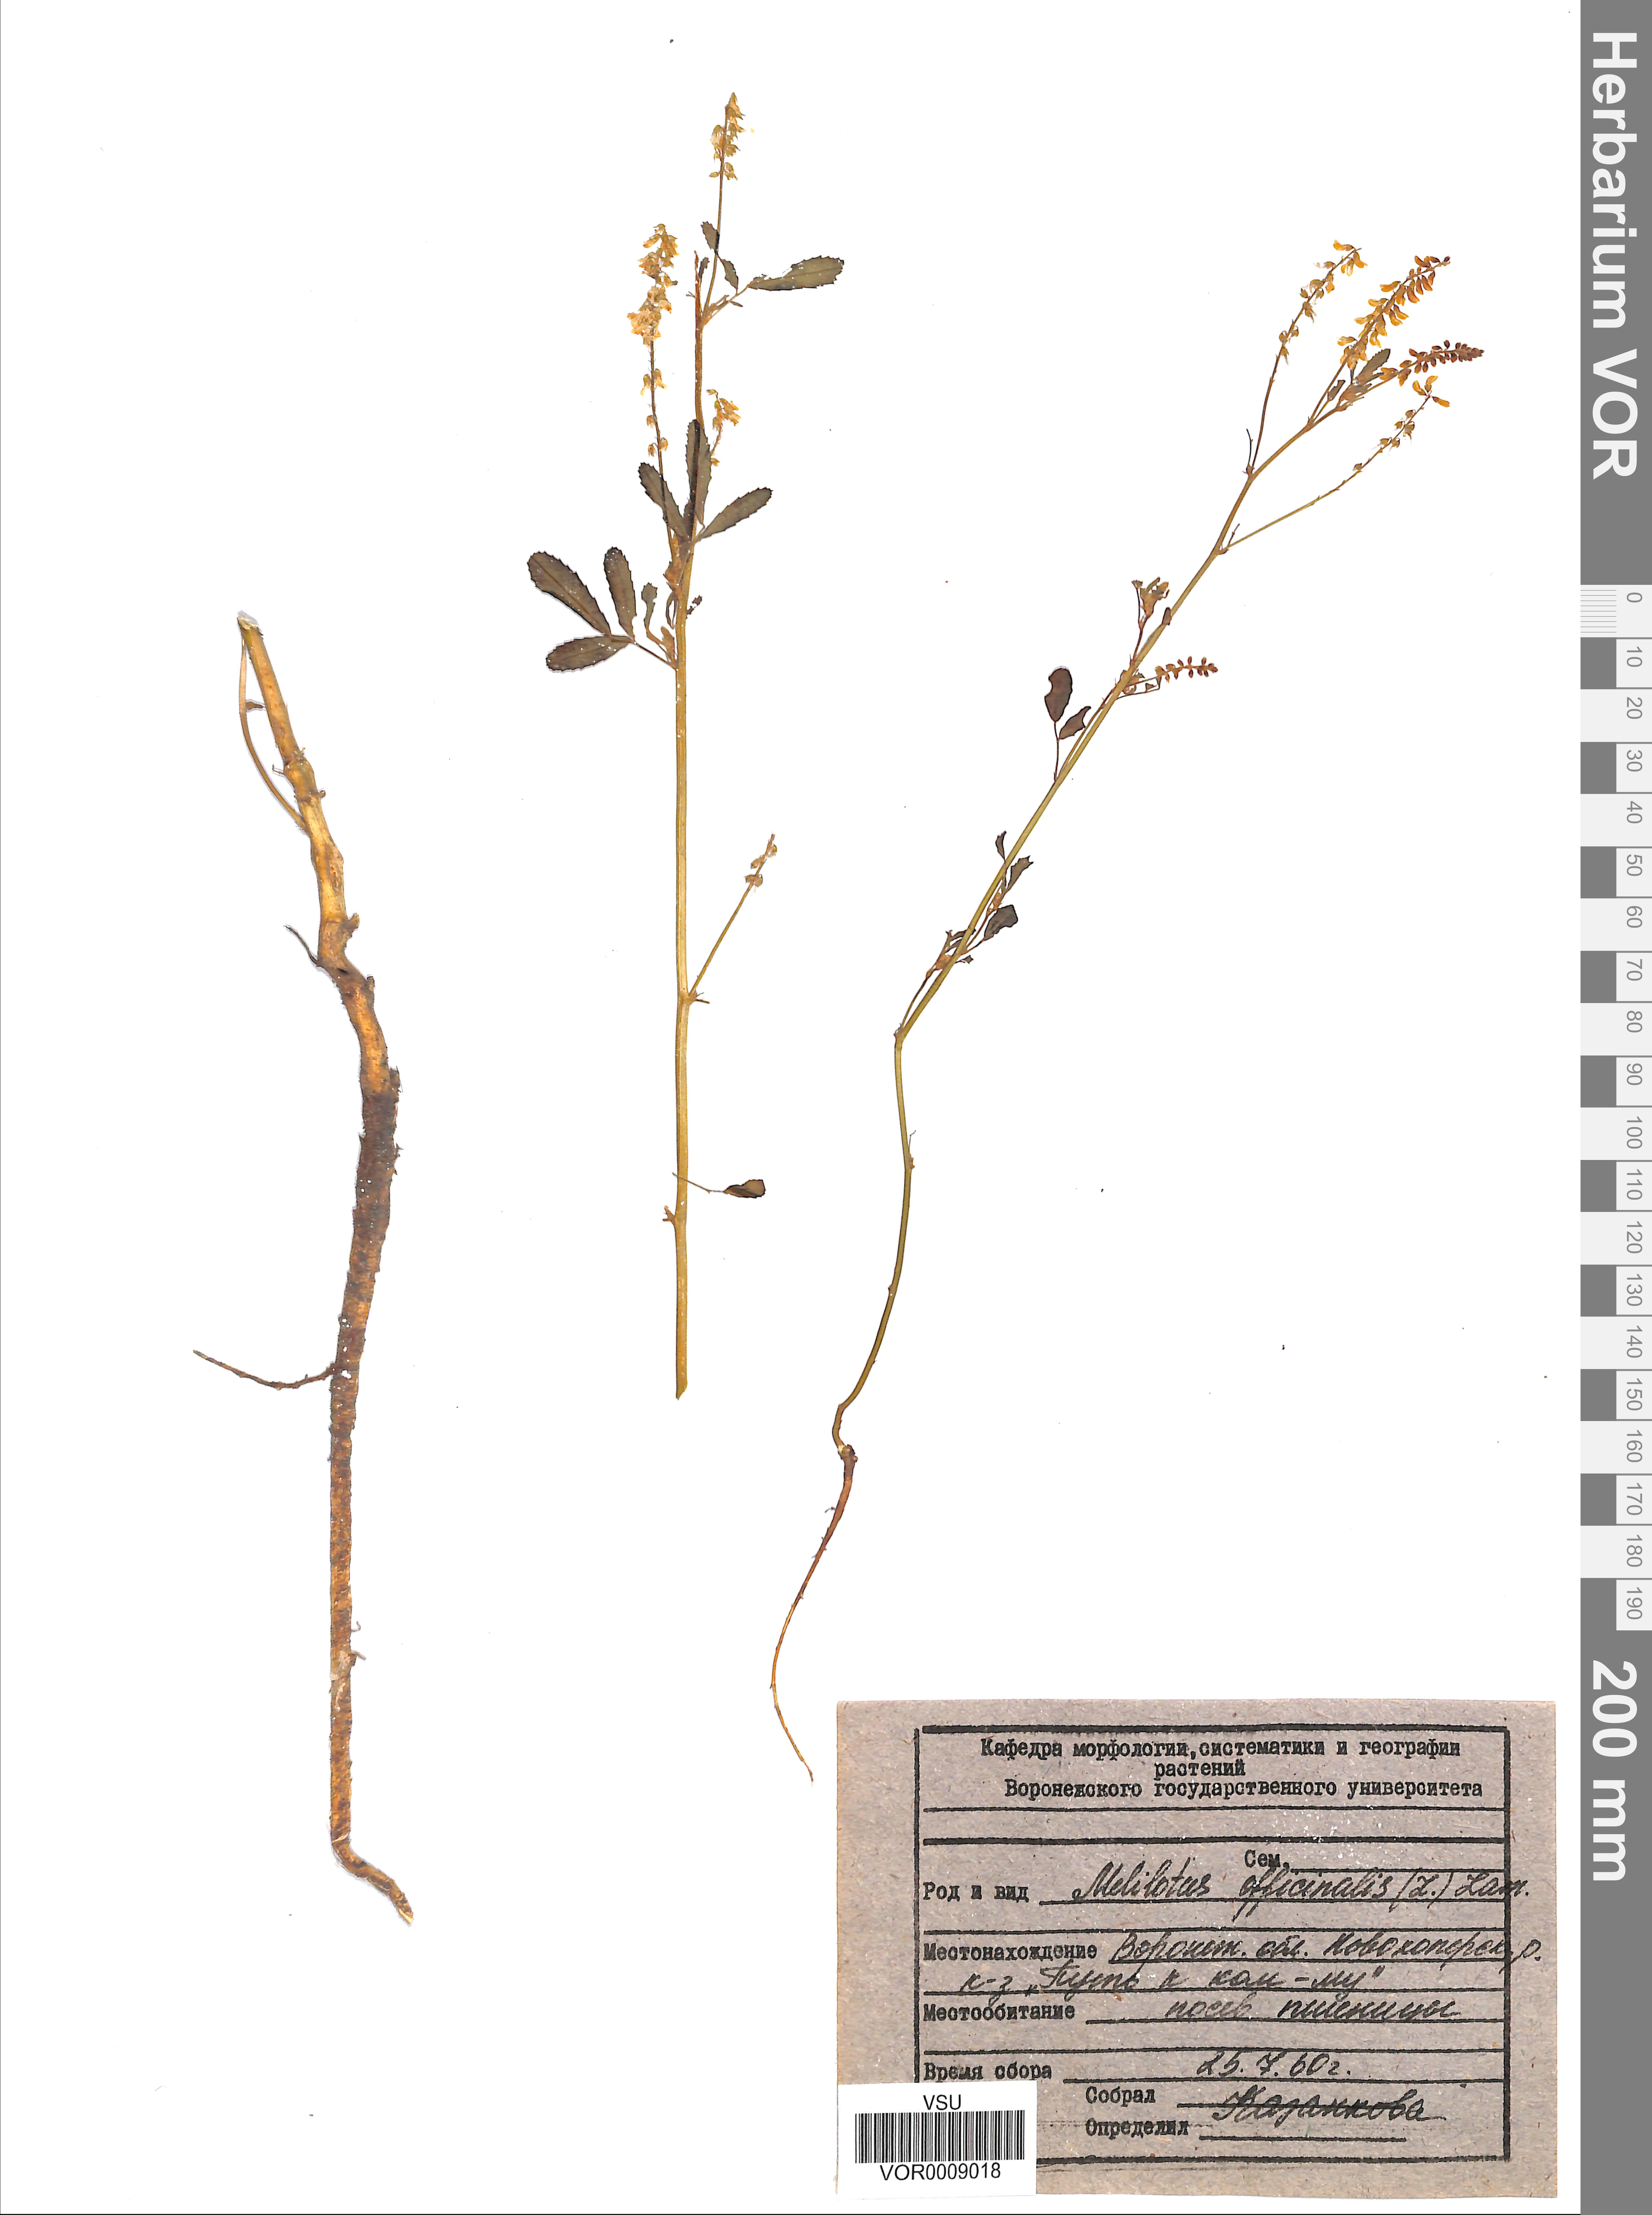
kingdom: Plantae
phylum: Tracheophyta
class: Magnoliopsida
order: Fabales
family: Fabaceae
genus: Melilotus
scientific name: Melilotus officinalis
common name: Sweetclover
